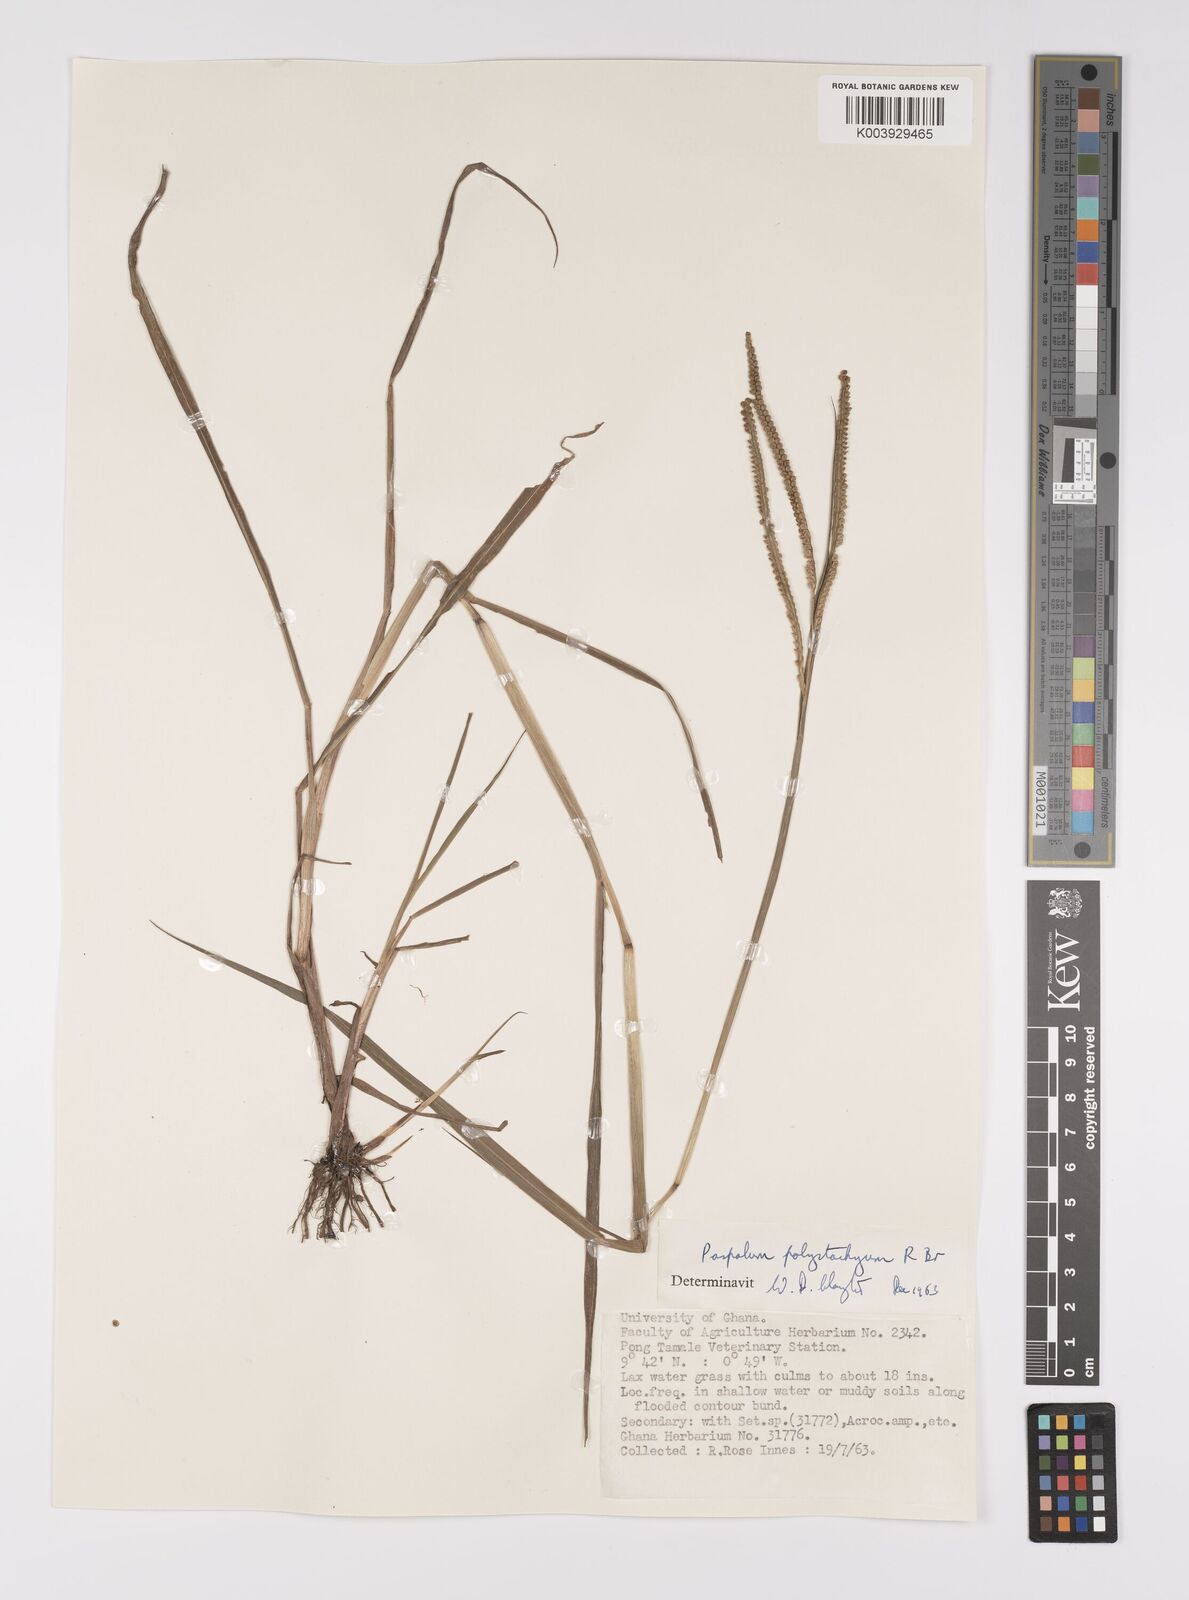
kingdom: Plantae
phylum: Tracheophyta
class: Liliopsida
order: Poales
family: Poaceae
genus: Paspalum
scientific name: Paspalum scrobiculatum
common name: Kodo millet
